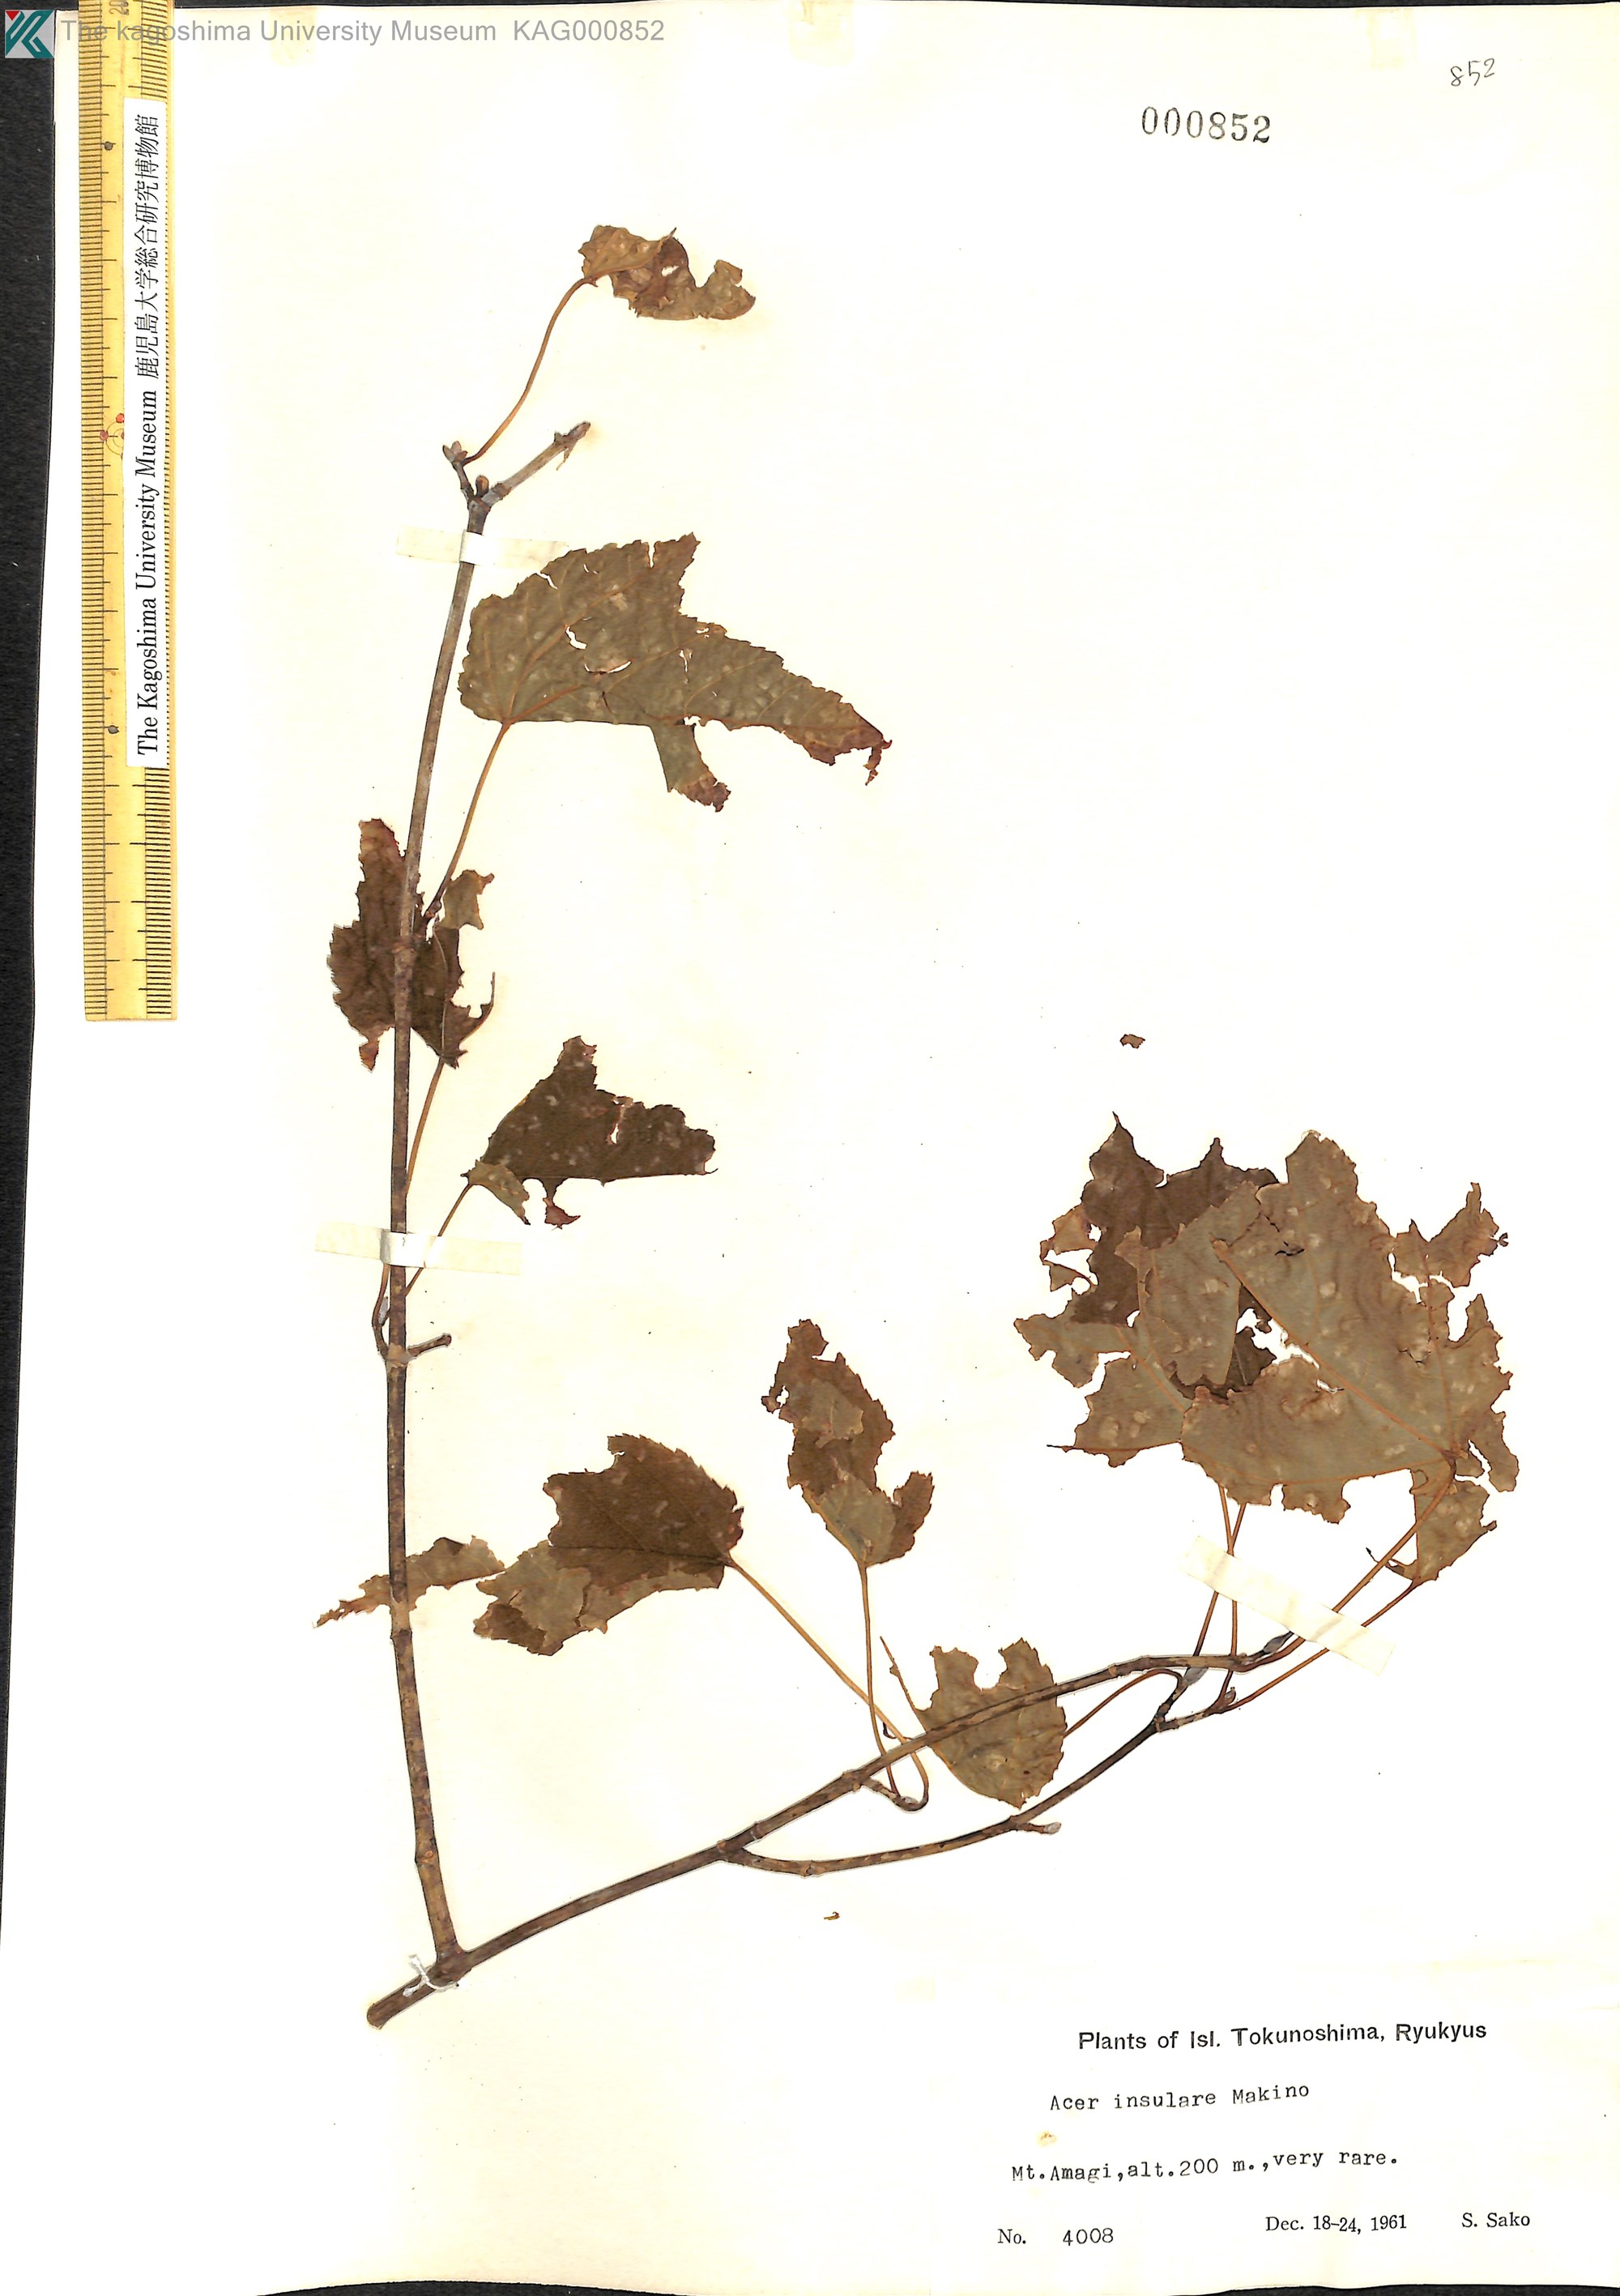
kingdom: Plantae
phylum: Tracheophyta
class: Magnoliopsida
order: Sapindales
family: Sapindaceae
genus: Acer
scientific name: Acer caudatifolium
